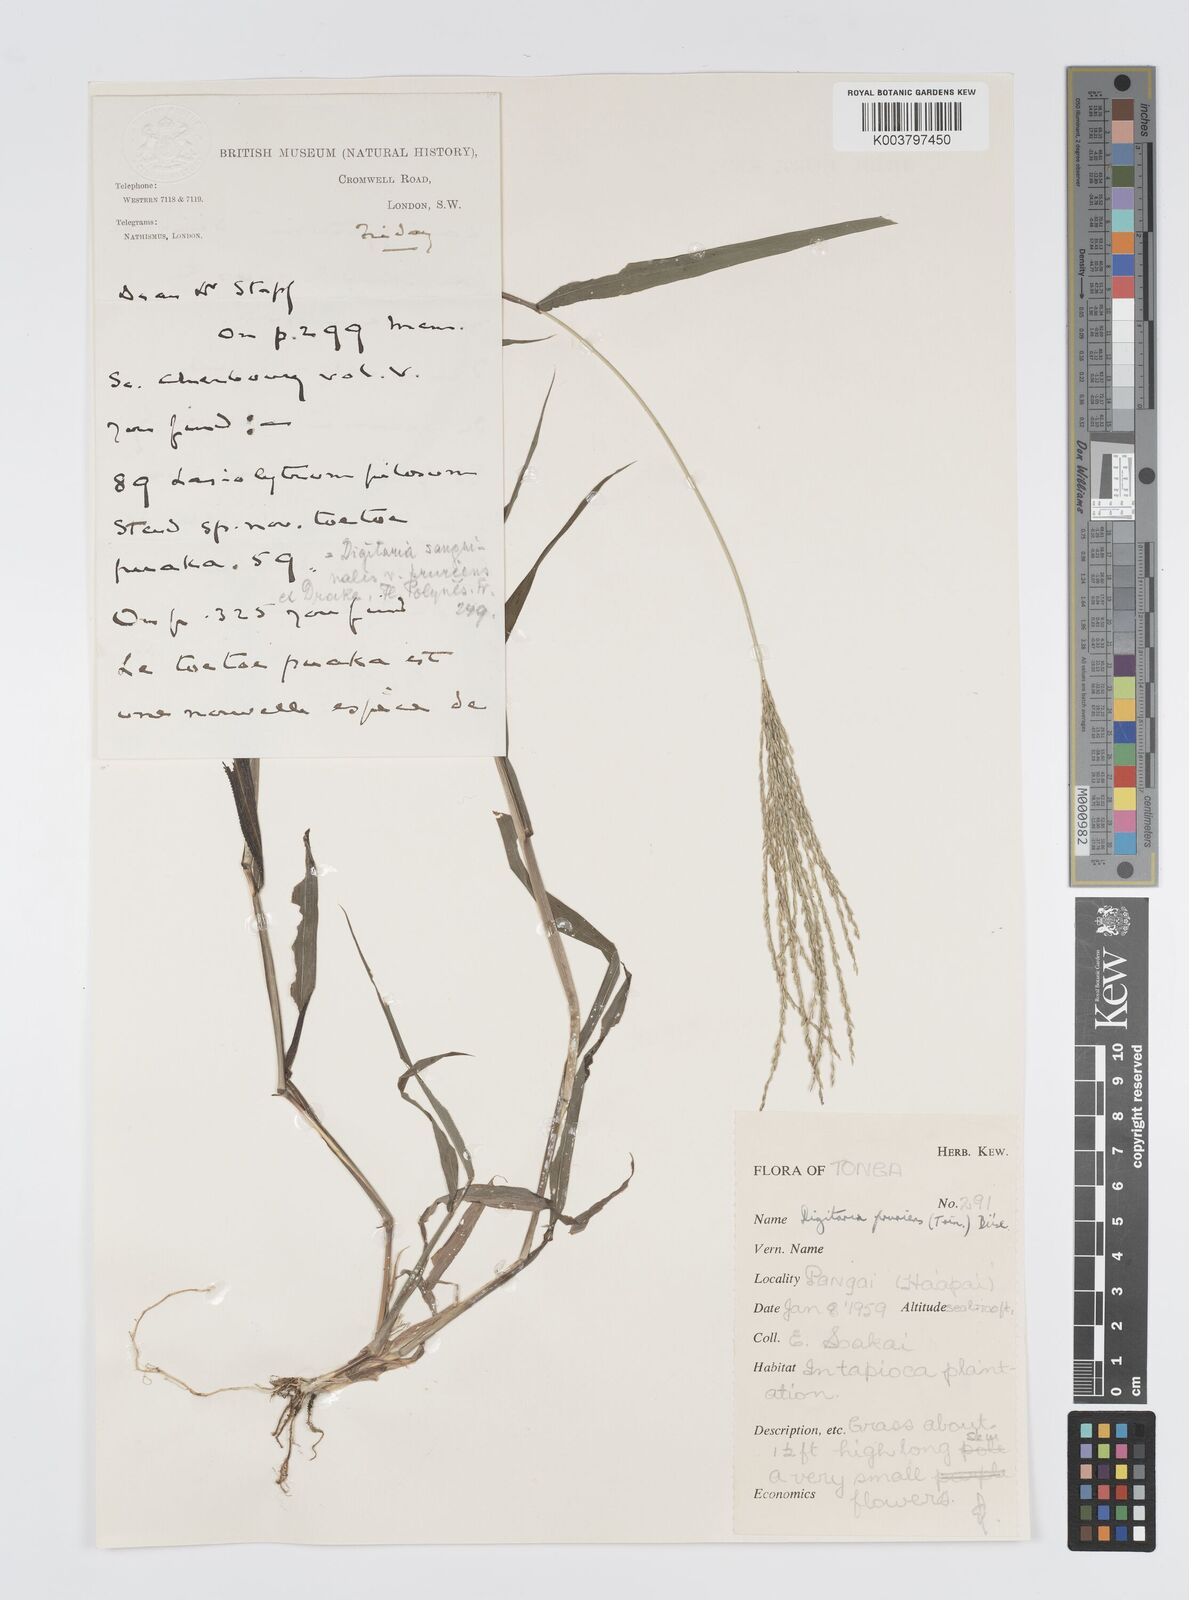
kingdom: Plantae
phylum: Tracheophyta
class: Liliopsida
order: Poales
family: Poaceae
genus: Digitaria
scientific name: Digitaria setigera
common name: East indian crabgrass
